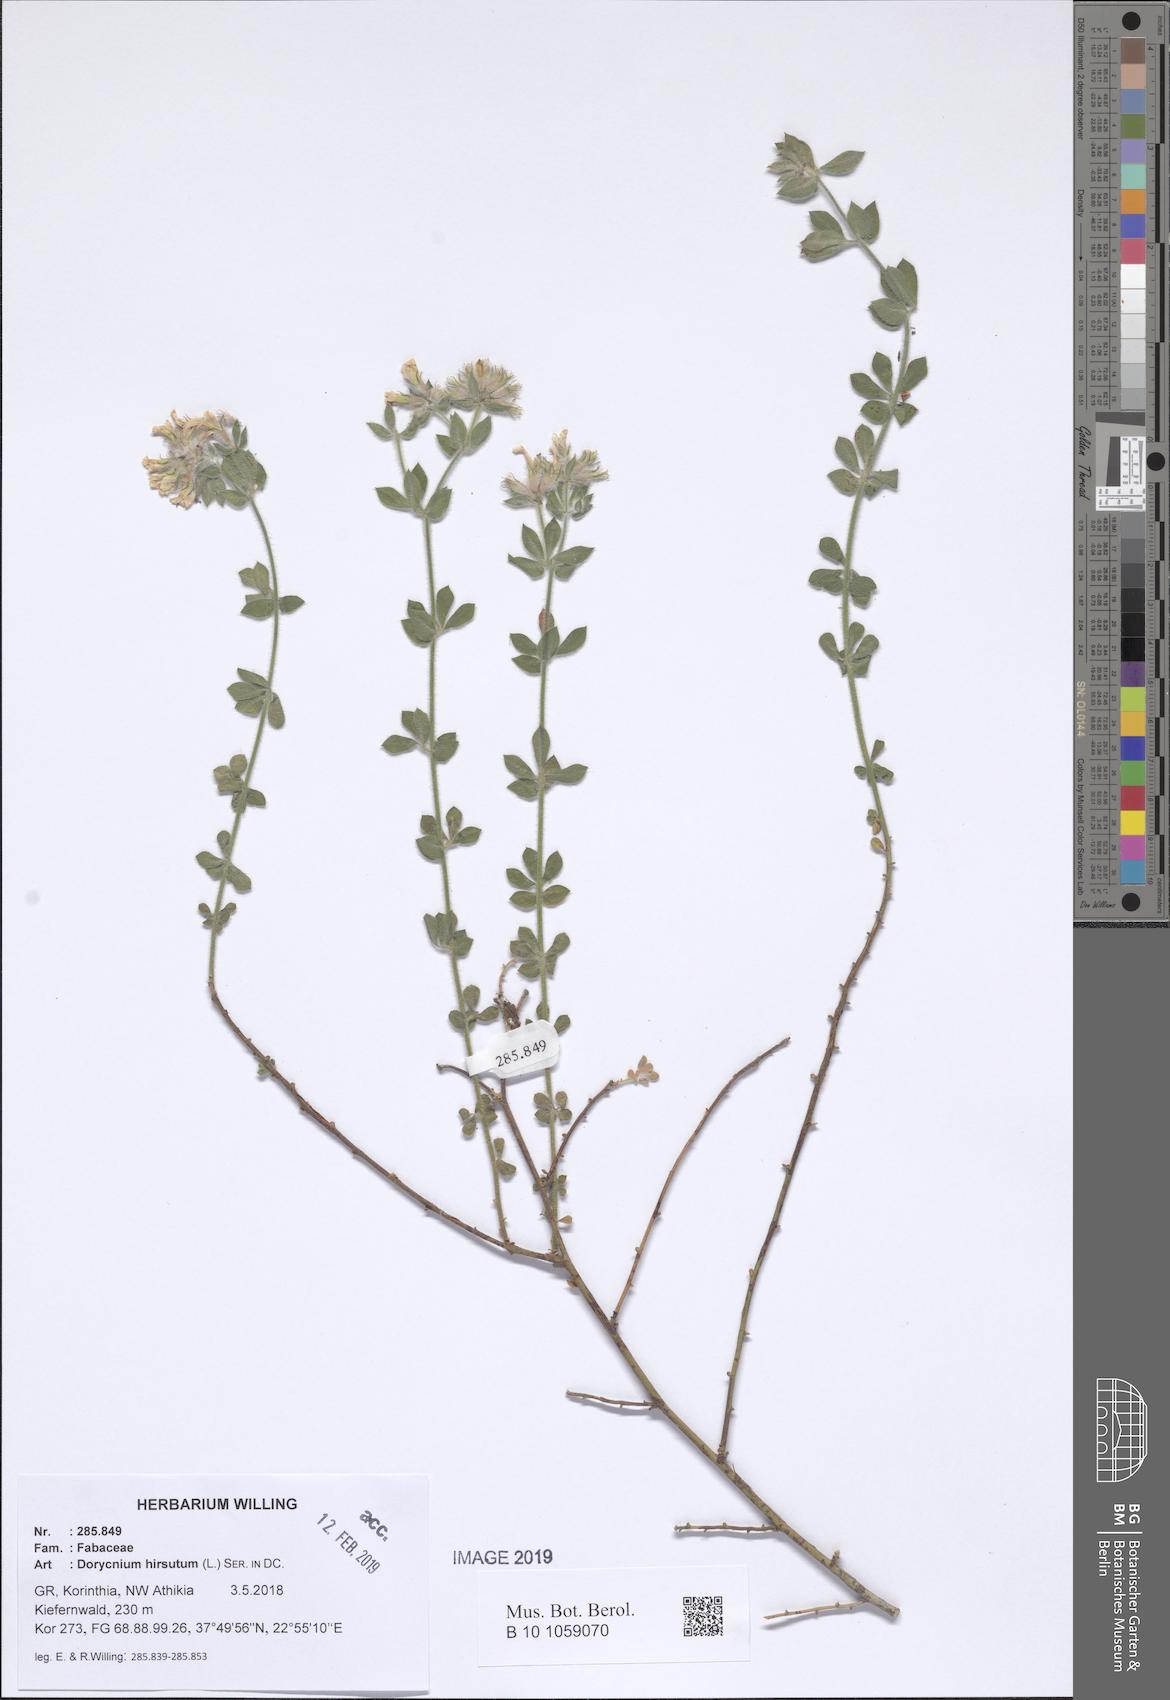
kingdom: Plantae
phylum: Tracheophyta
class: Magnoliopsida
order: Fabales
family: Fabaceae
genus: Lotus
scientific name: Lotus hirsutus
